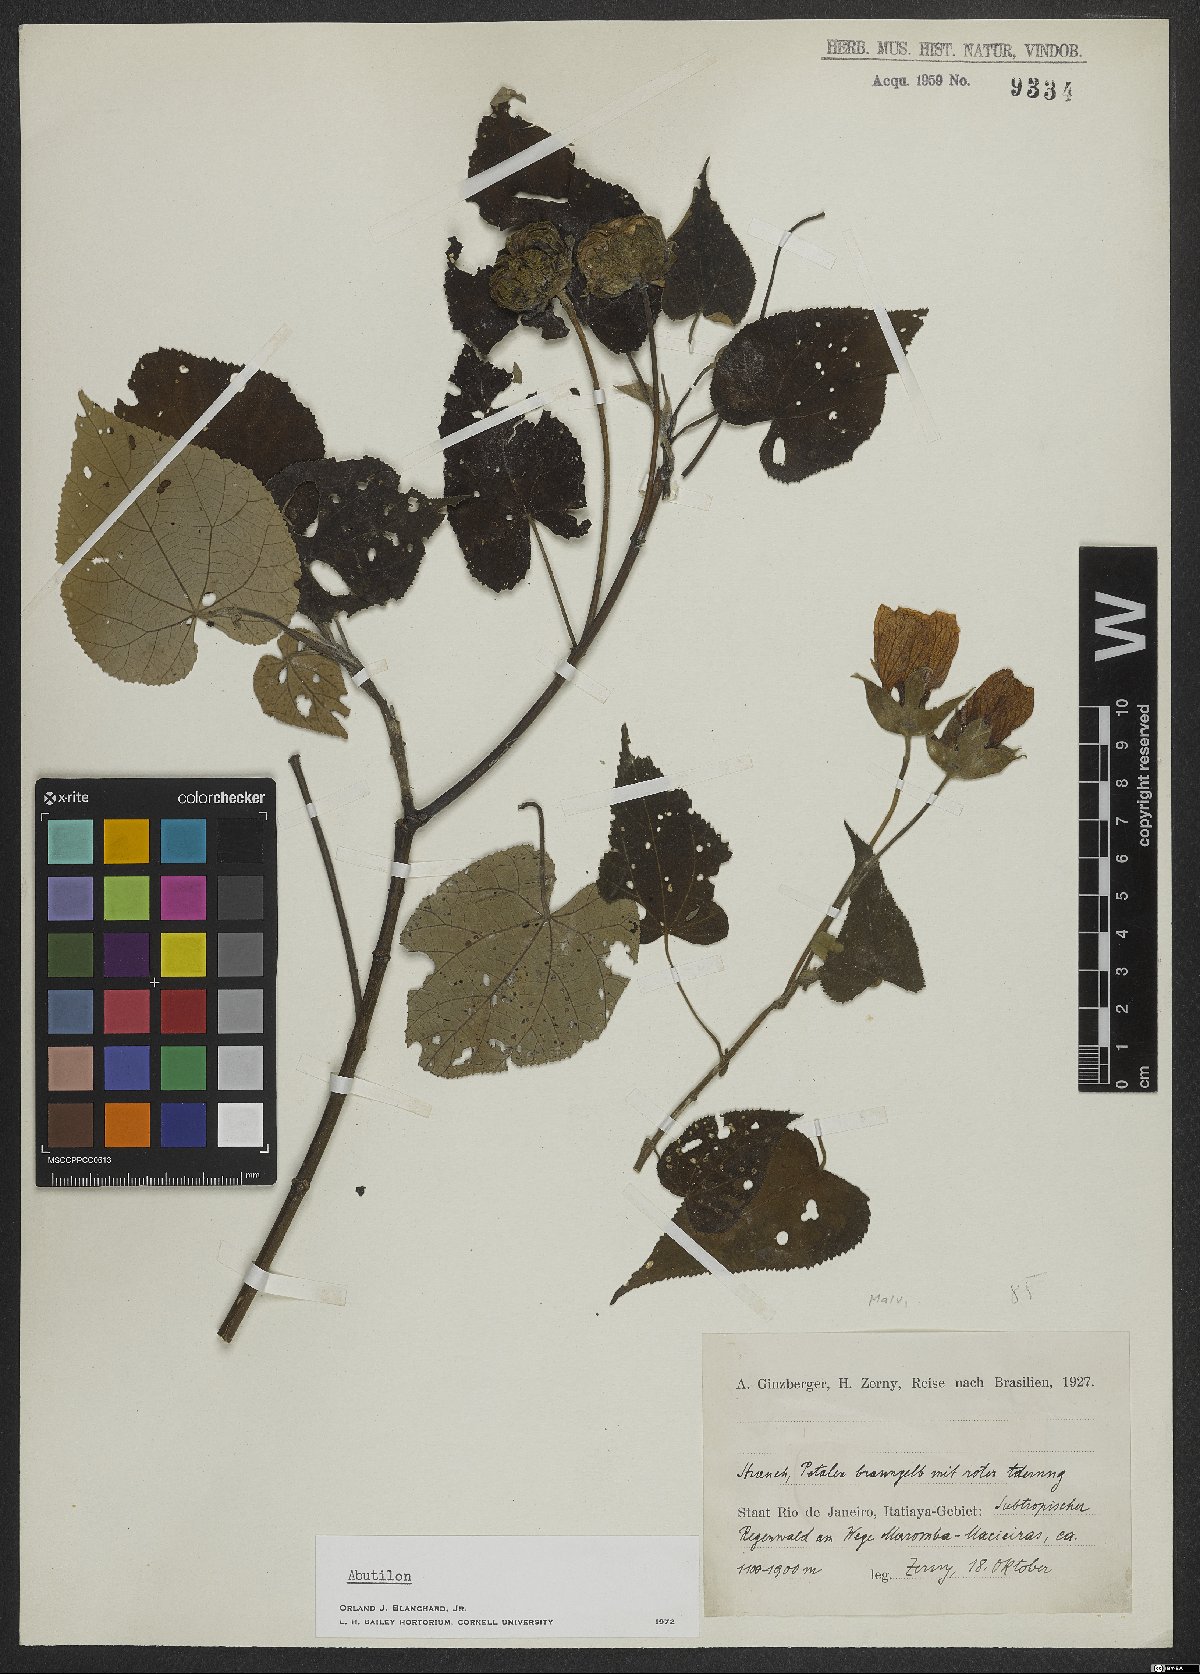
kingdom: Plantae
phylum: Tracheophyta
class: Magnoliopsida
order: Malvales
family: Malvaceae
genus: Abutilon
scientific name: Abutilon
